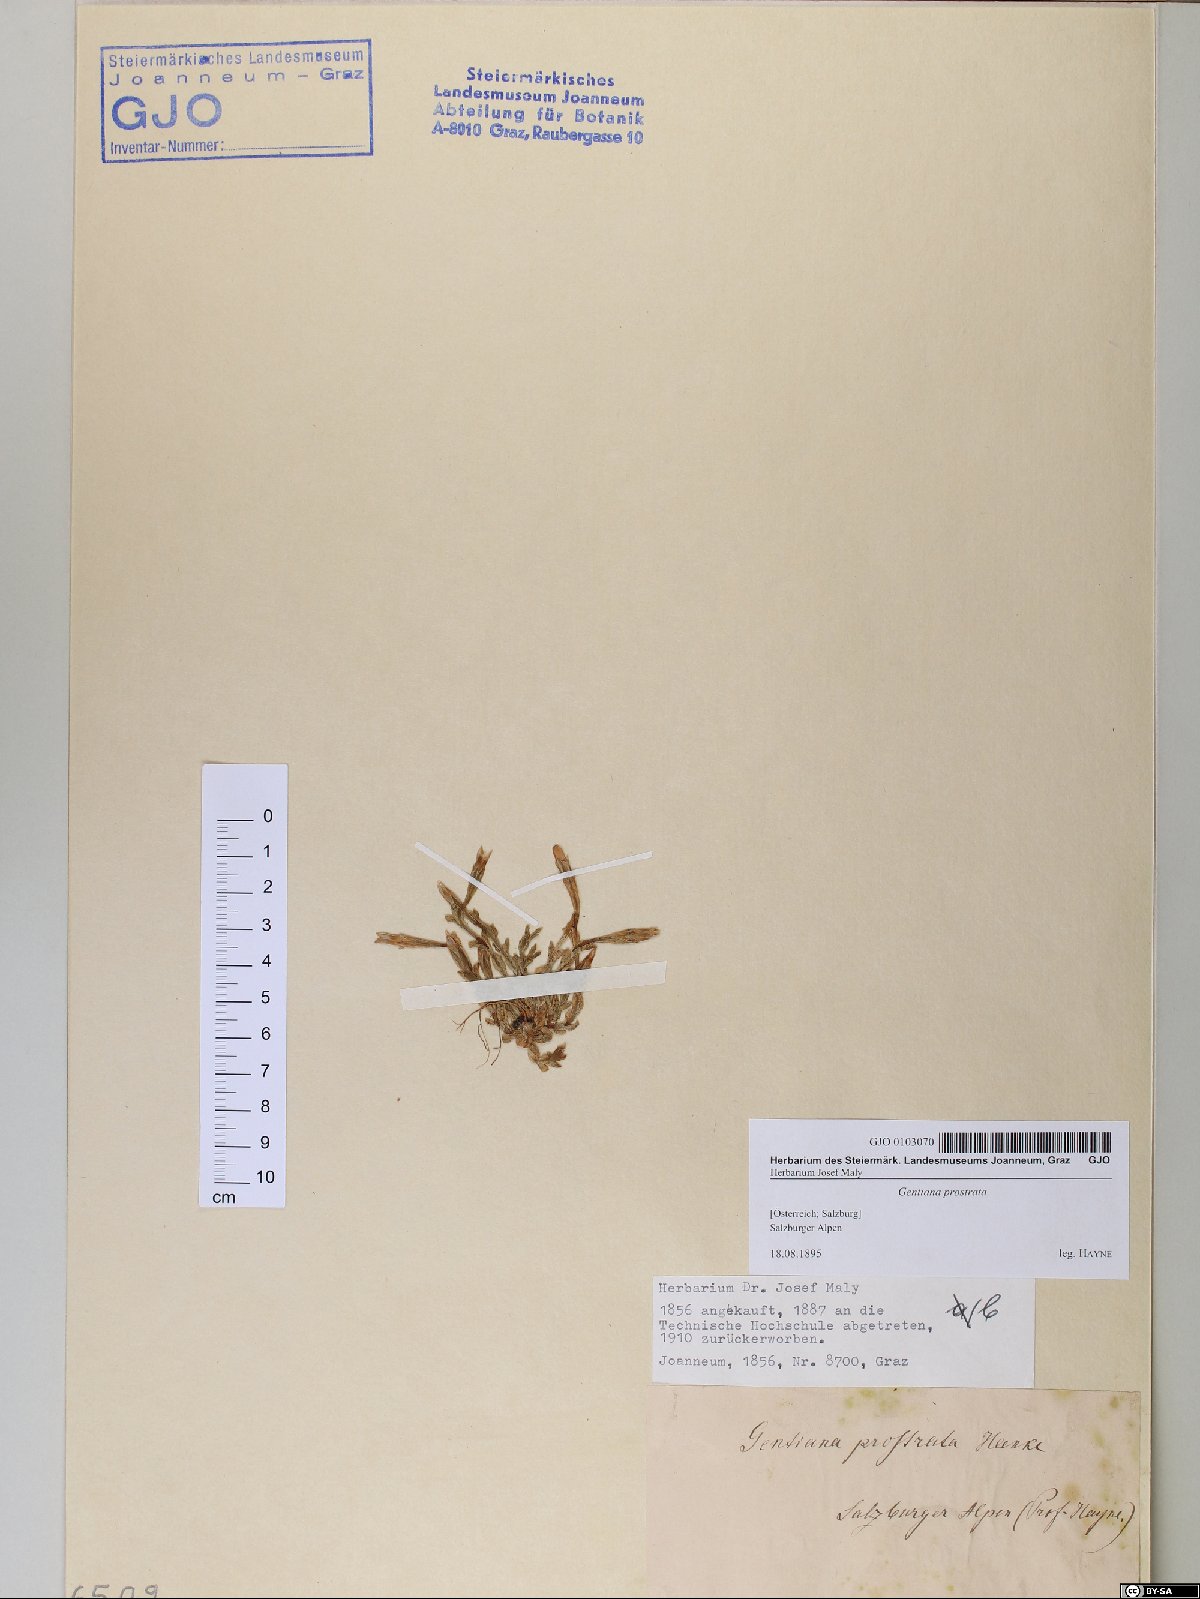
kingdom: Plantae
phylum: Tracheophyta
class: Magnoliopsida
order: Gentianales
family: Gentianaceae
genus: Gentiana
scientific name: Gentiana prostrata
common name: Moss gentian
